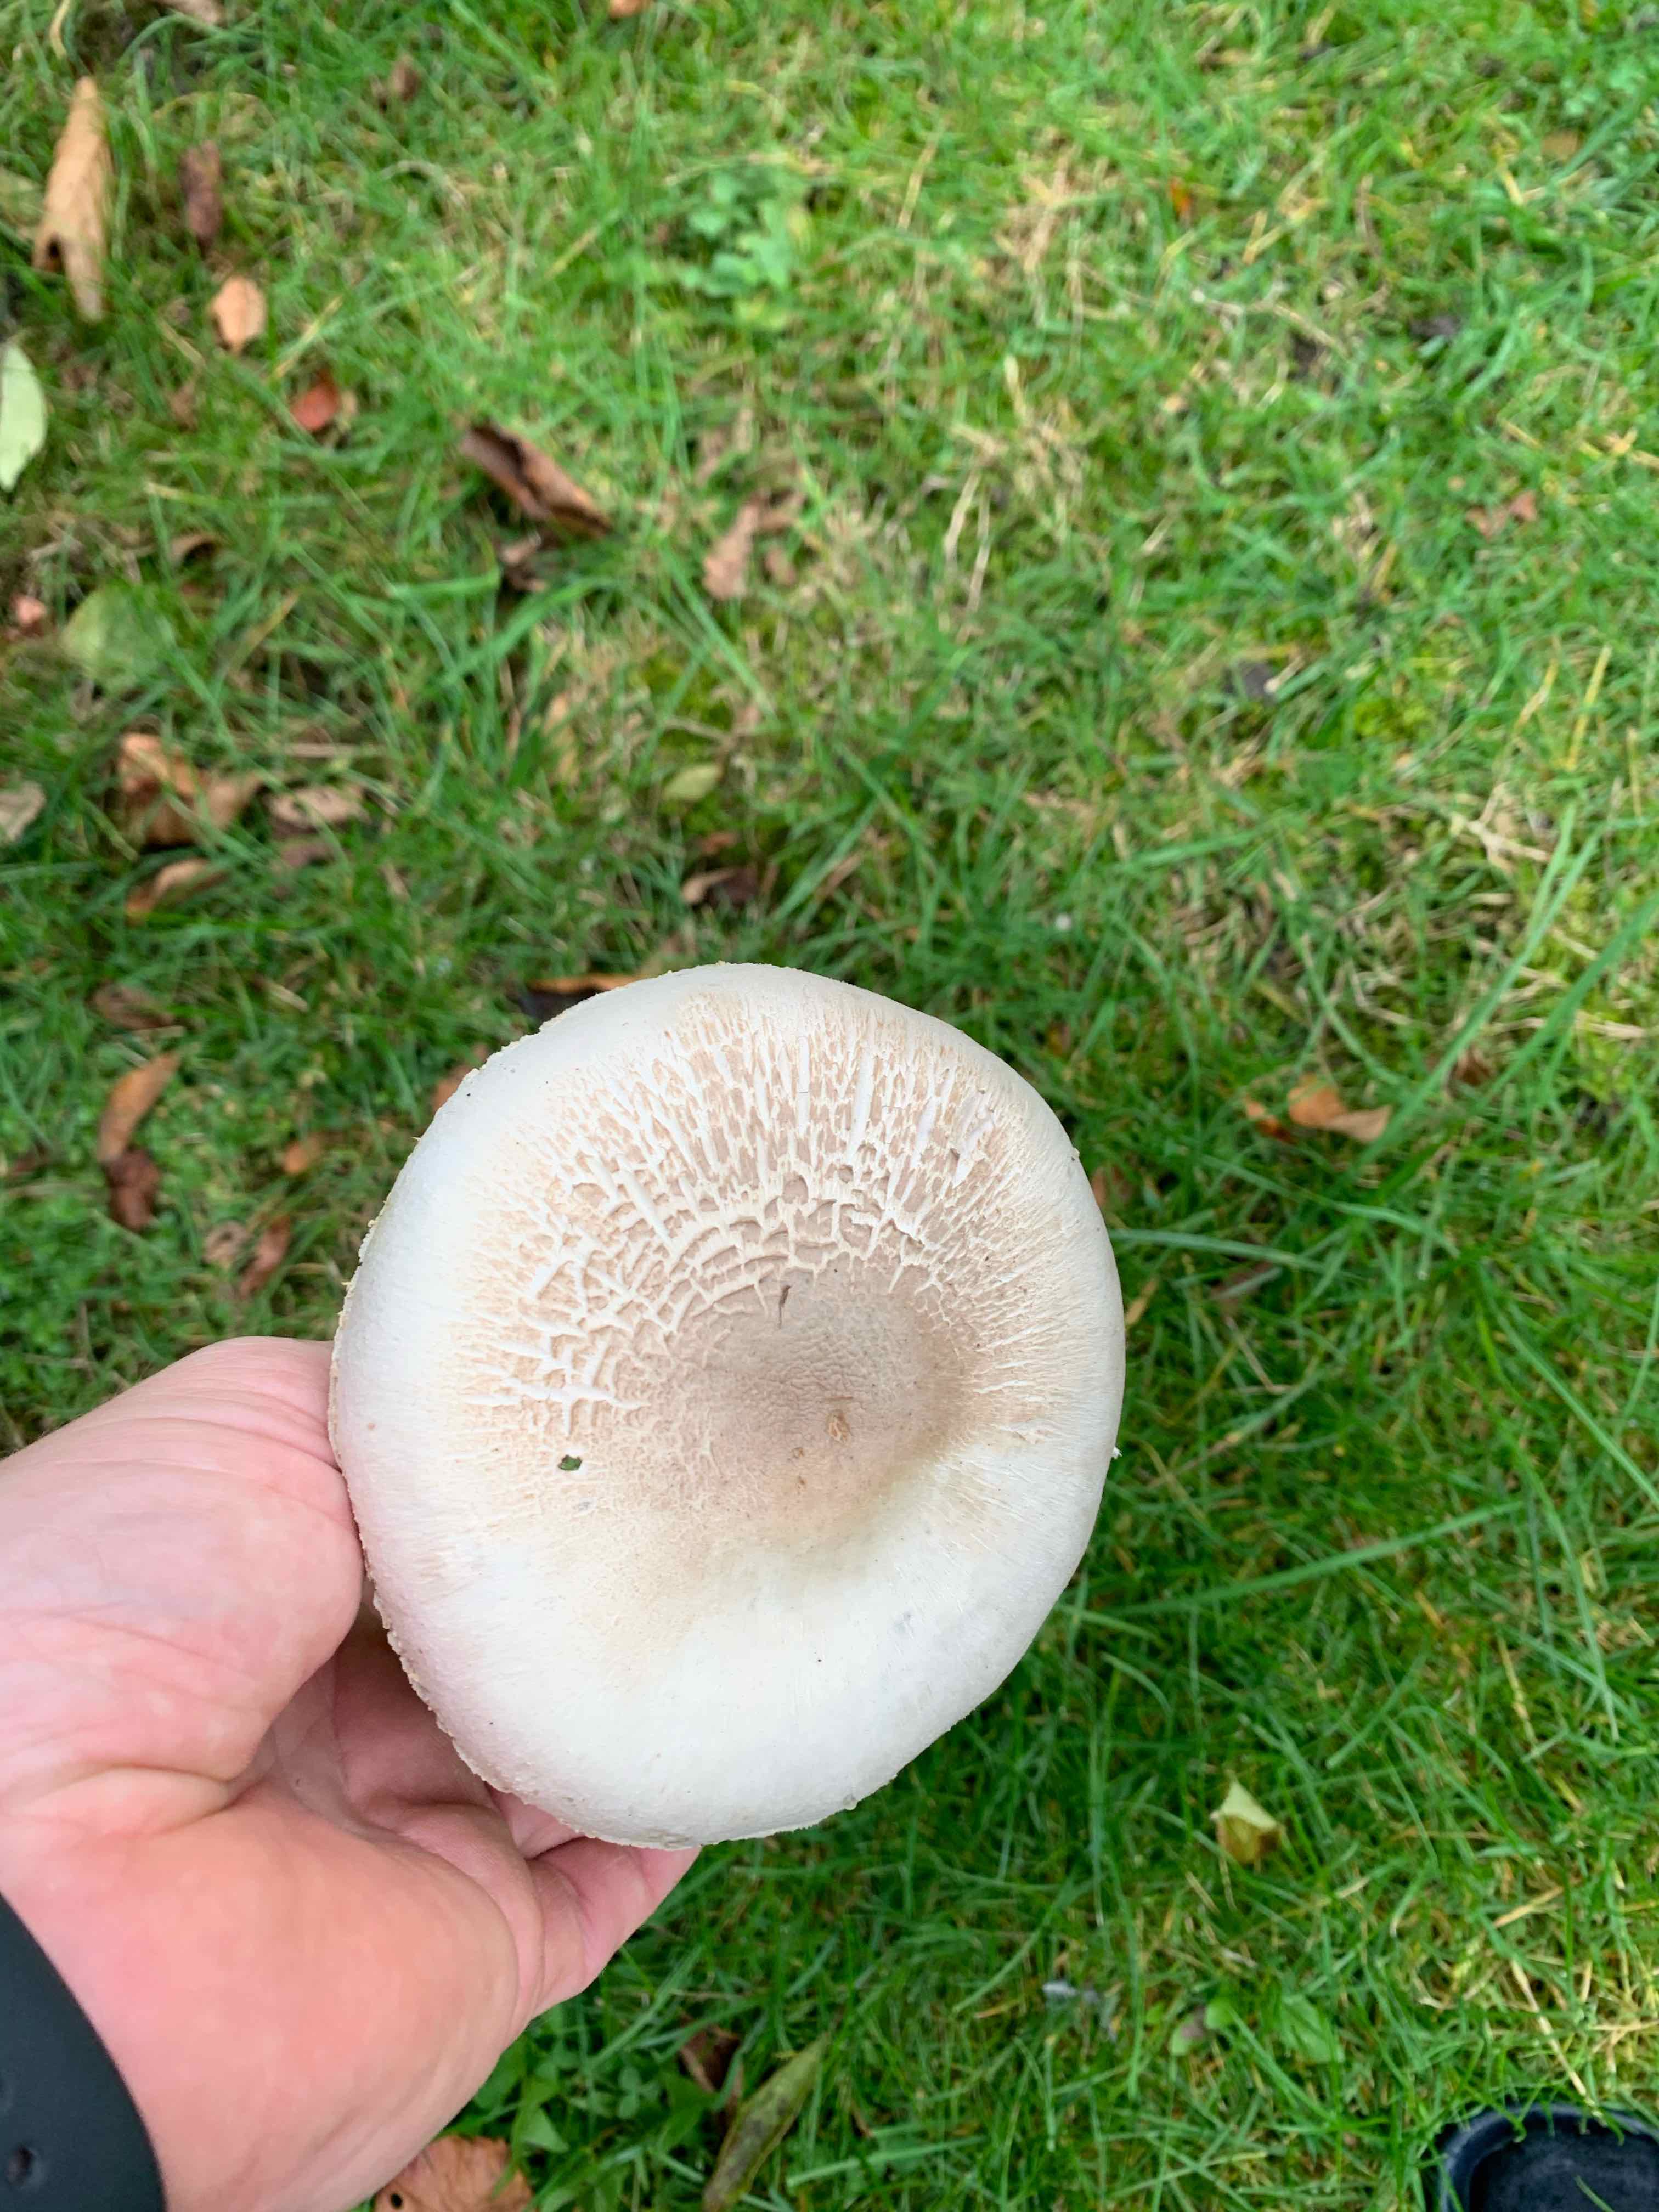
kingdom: Fungi
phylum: Basidiomycota
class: Agaricomycetes
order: Agaricales
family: Agaricaceae
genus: Agaricus
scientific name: Agaricus xanthodermus
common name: karbol-champignon
